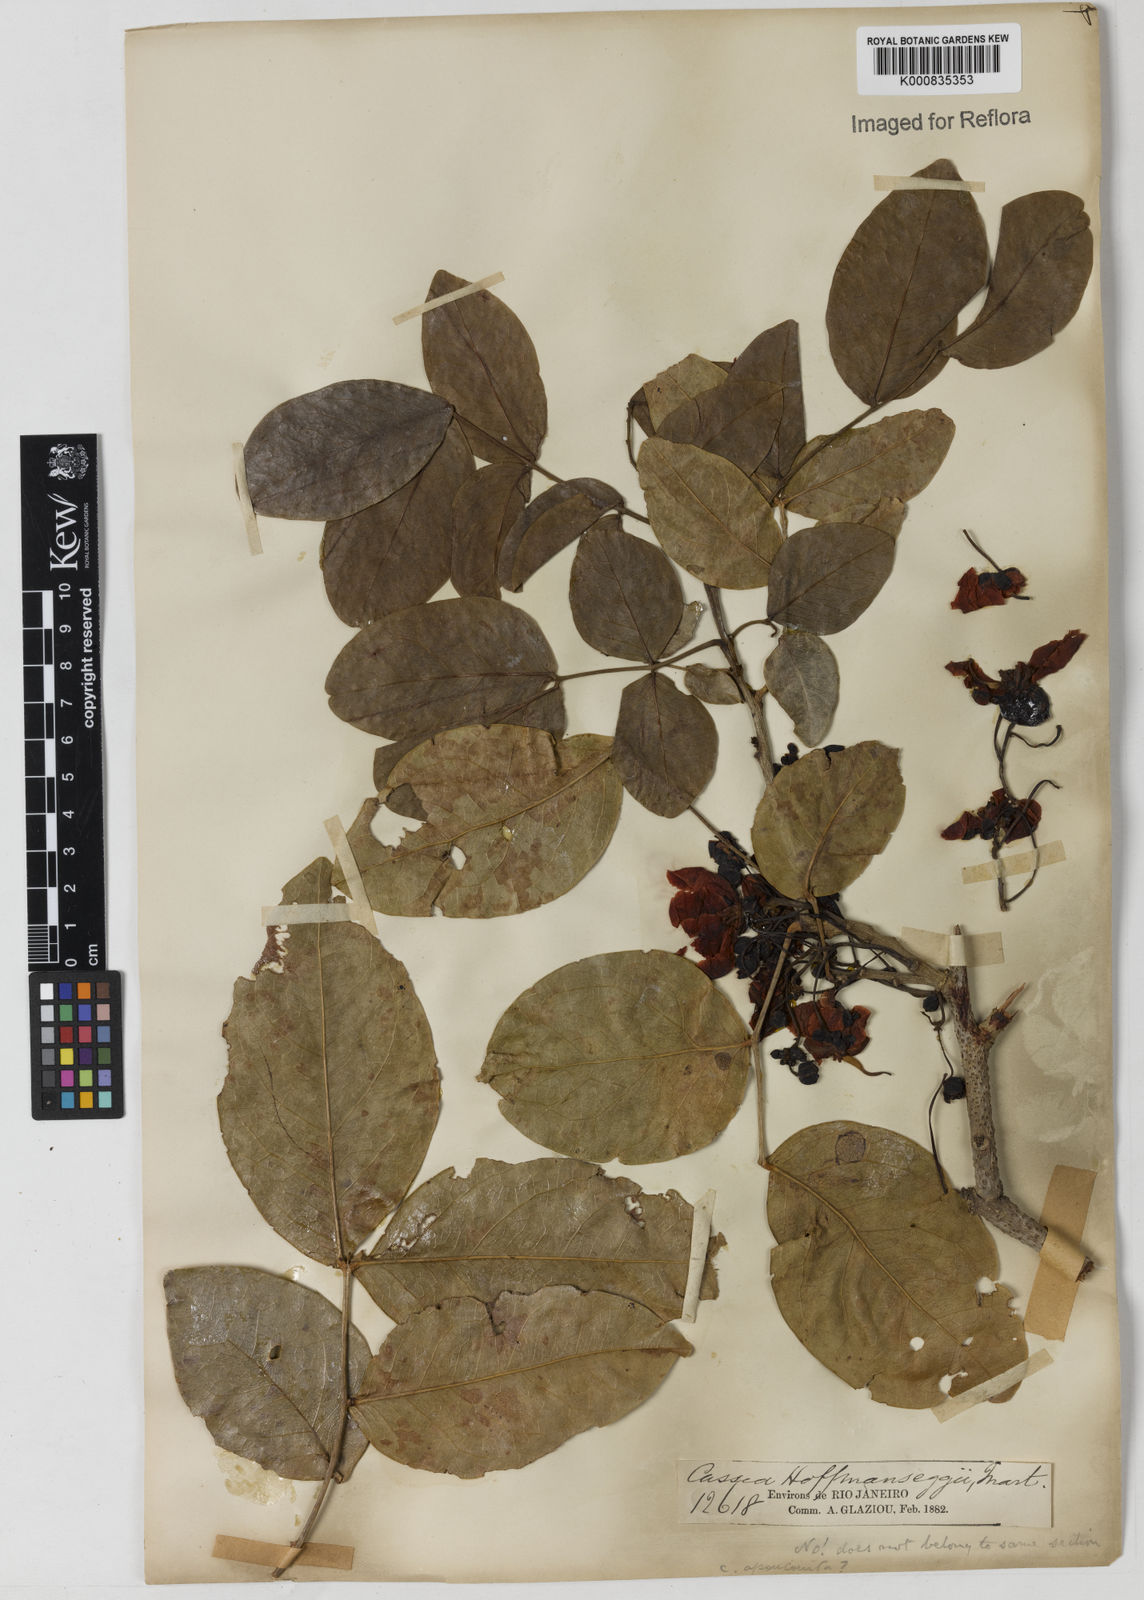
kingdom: Plantae
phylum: Tracheophyta
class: Magnoliopsida
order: Fabales
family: Fabaceae
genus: Chamaecrista
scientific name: Chamaecrista ensiformis
